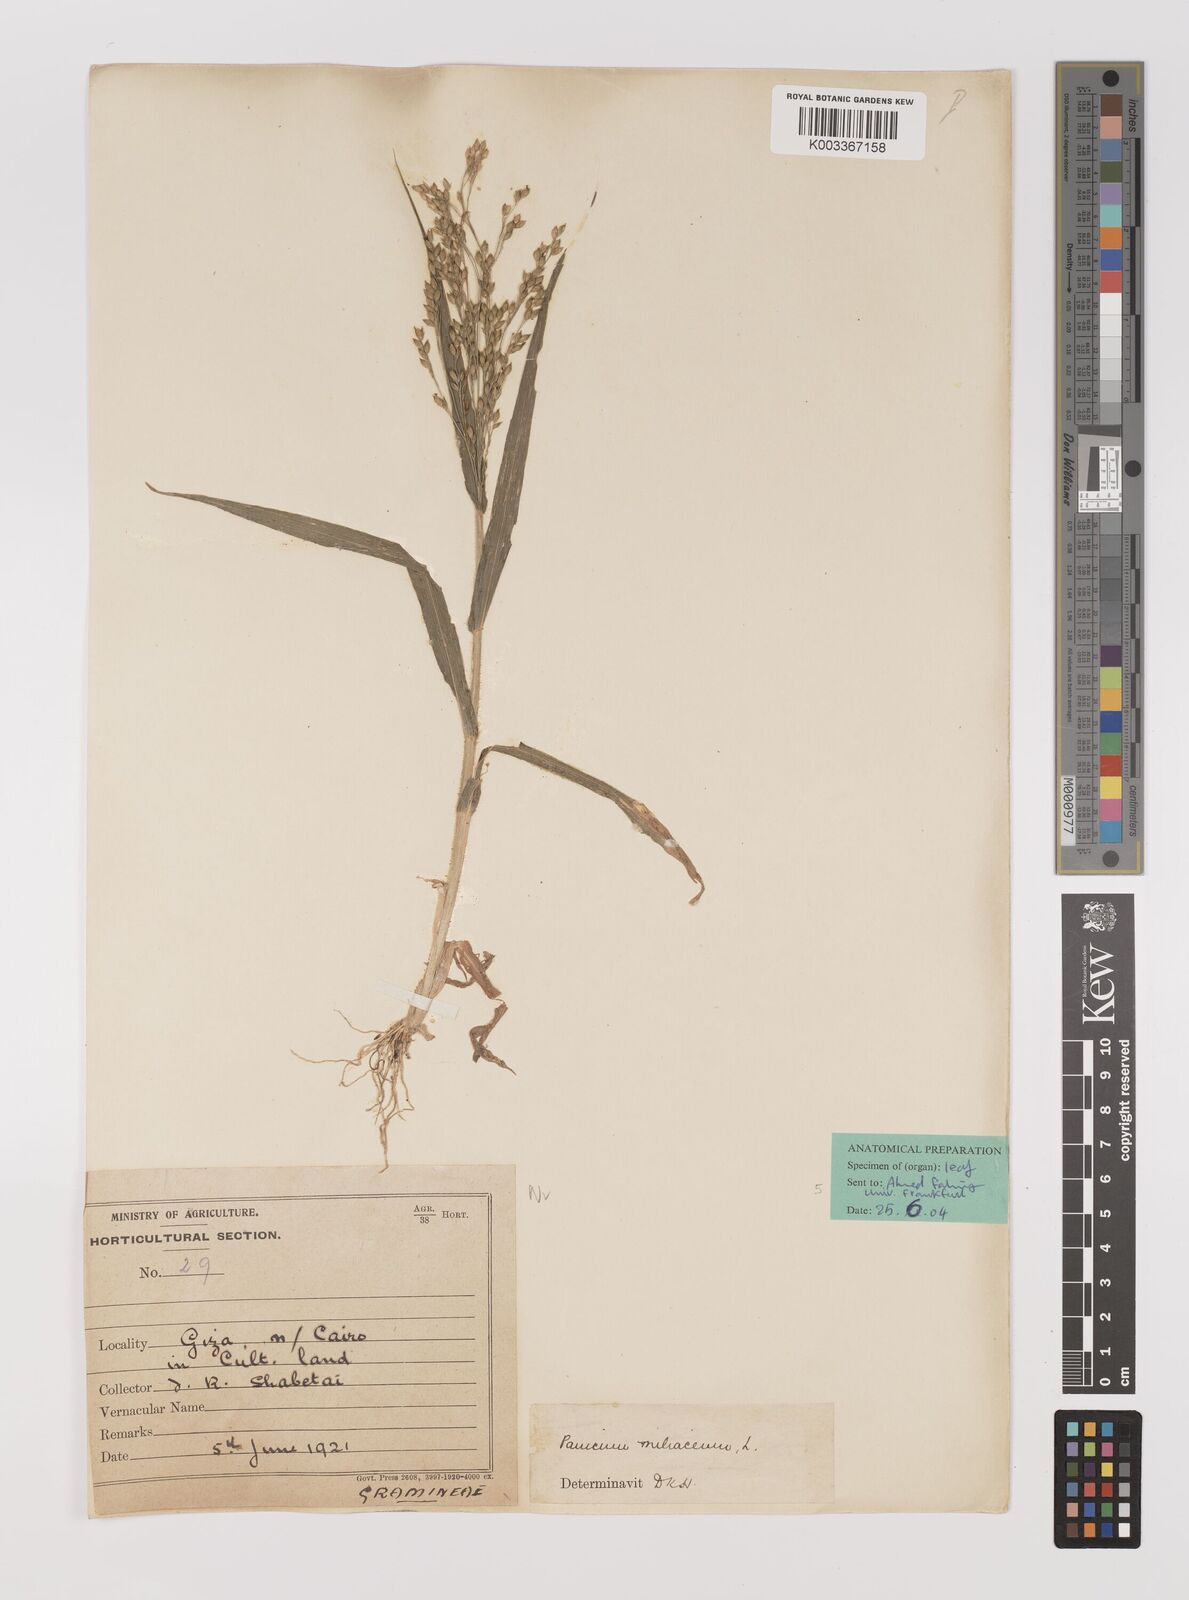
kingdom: Plantae
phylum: Tracheophyta
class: Liliopsida
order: Poales
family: Poaceae
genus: Panicum
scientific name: Panicum miliaceum
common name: Common millet
